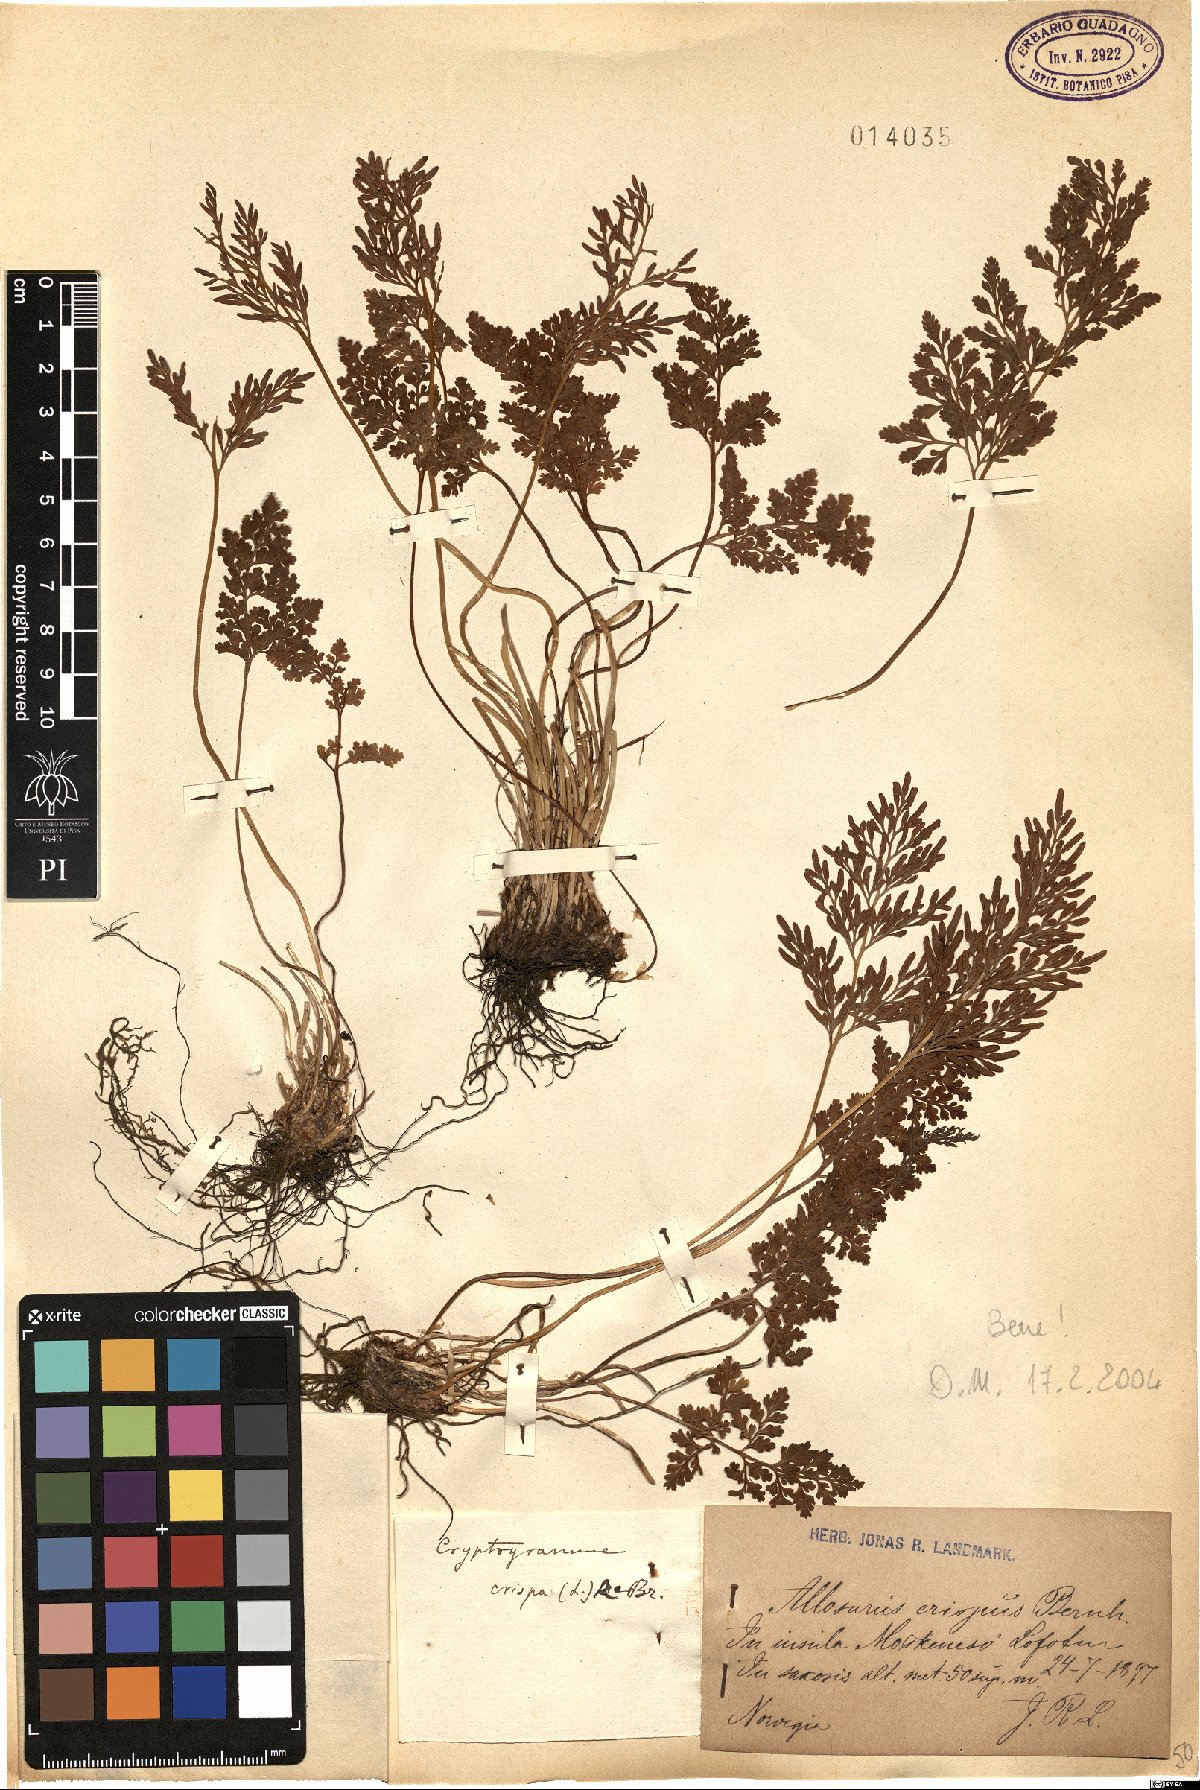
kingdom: Plantae
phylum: Tracheophyta
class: Polypodiopsida
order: Polypodiales
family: Pteridaceae
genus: Cryptogramma
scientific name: Cryptogramma crispa
